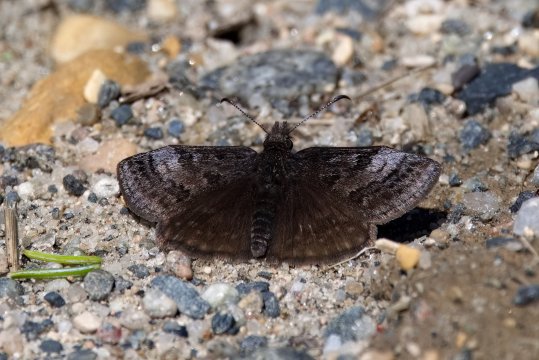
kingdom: Animalia
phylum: Arthropoda
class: Insecta
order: Lepidoptera
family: Hesperiidae
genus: Erynnis
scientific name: Erynnis icelus
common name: Dreamy Duskywing
